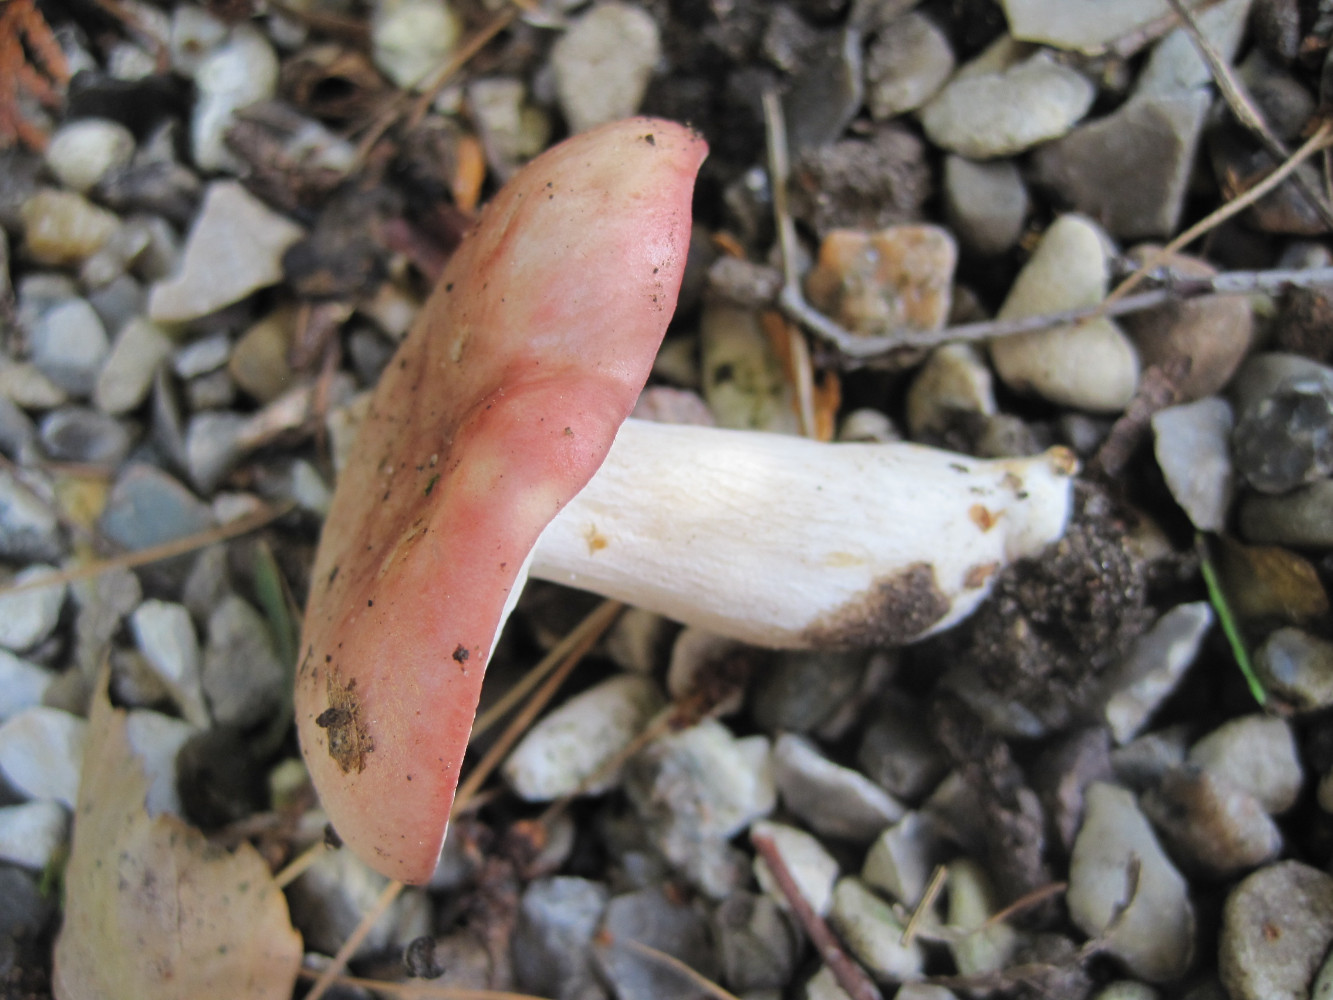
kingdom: Fungi
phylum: Basidiomycota
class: Agaricomycetes
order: Russulales
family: Russulaceae
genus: Russula
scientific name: Russula depallens
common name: falmende skørhat
